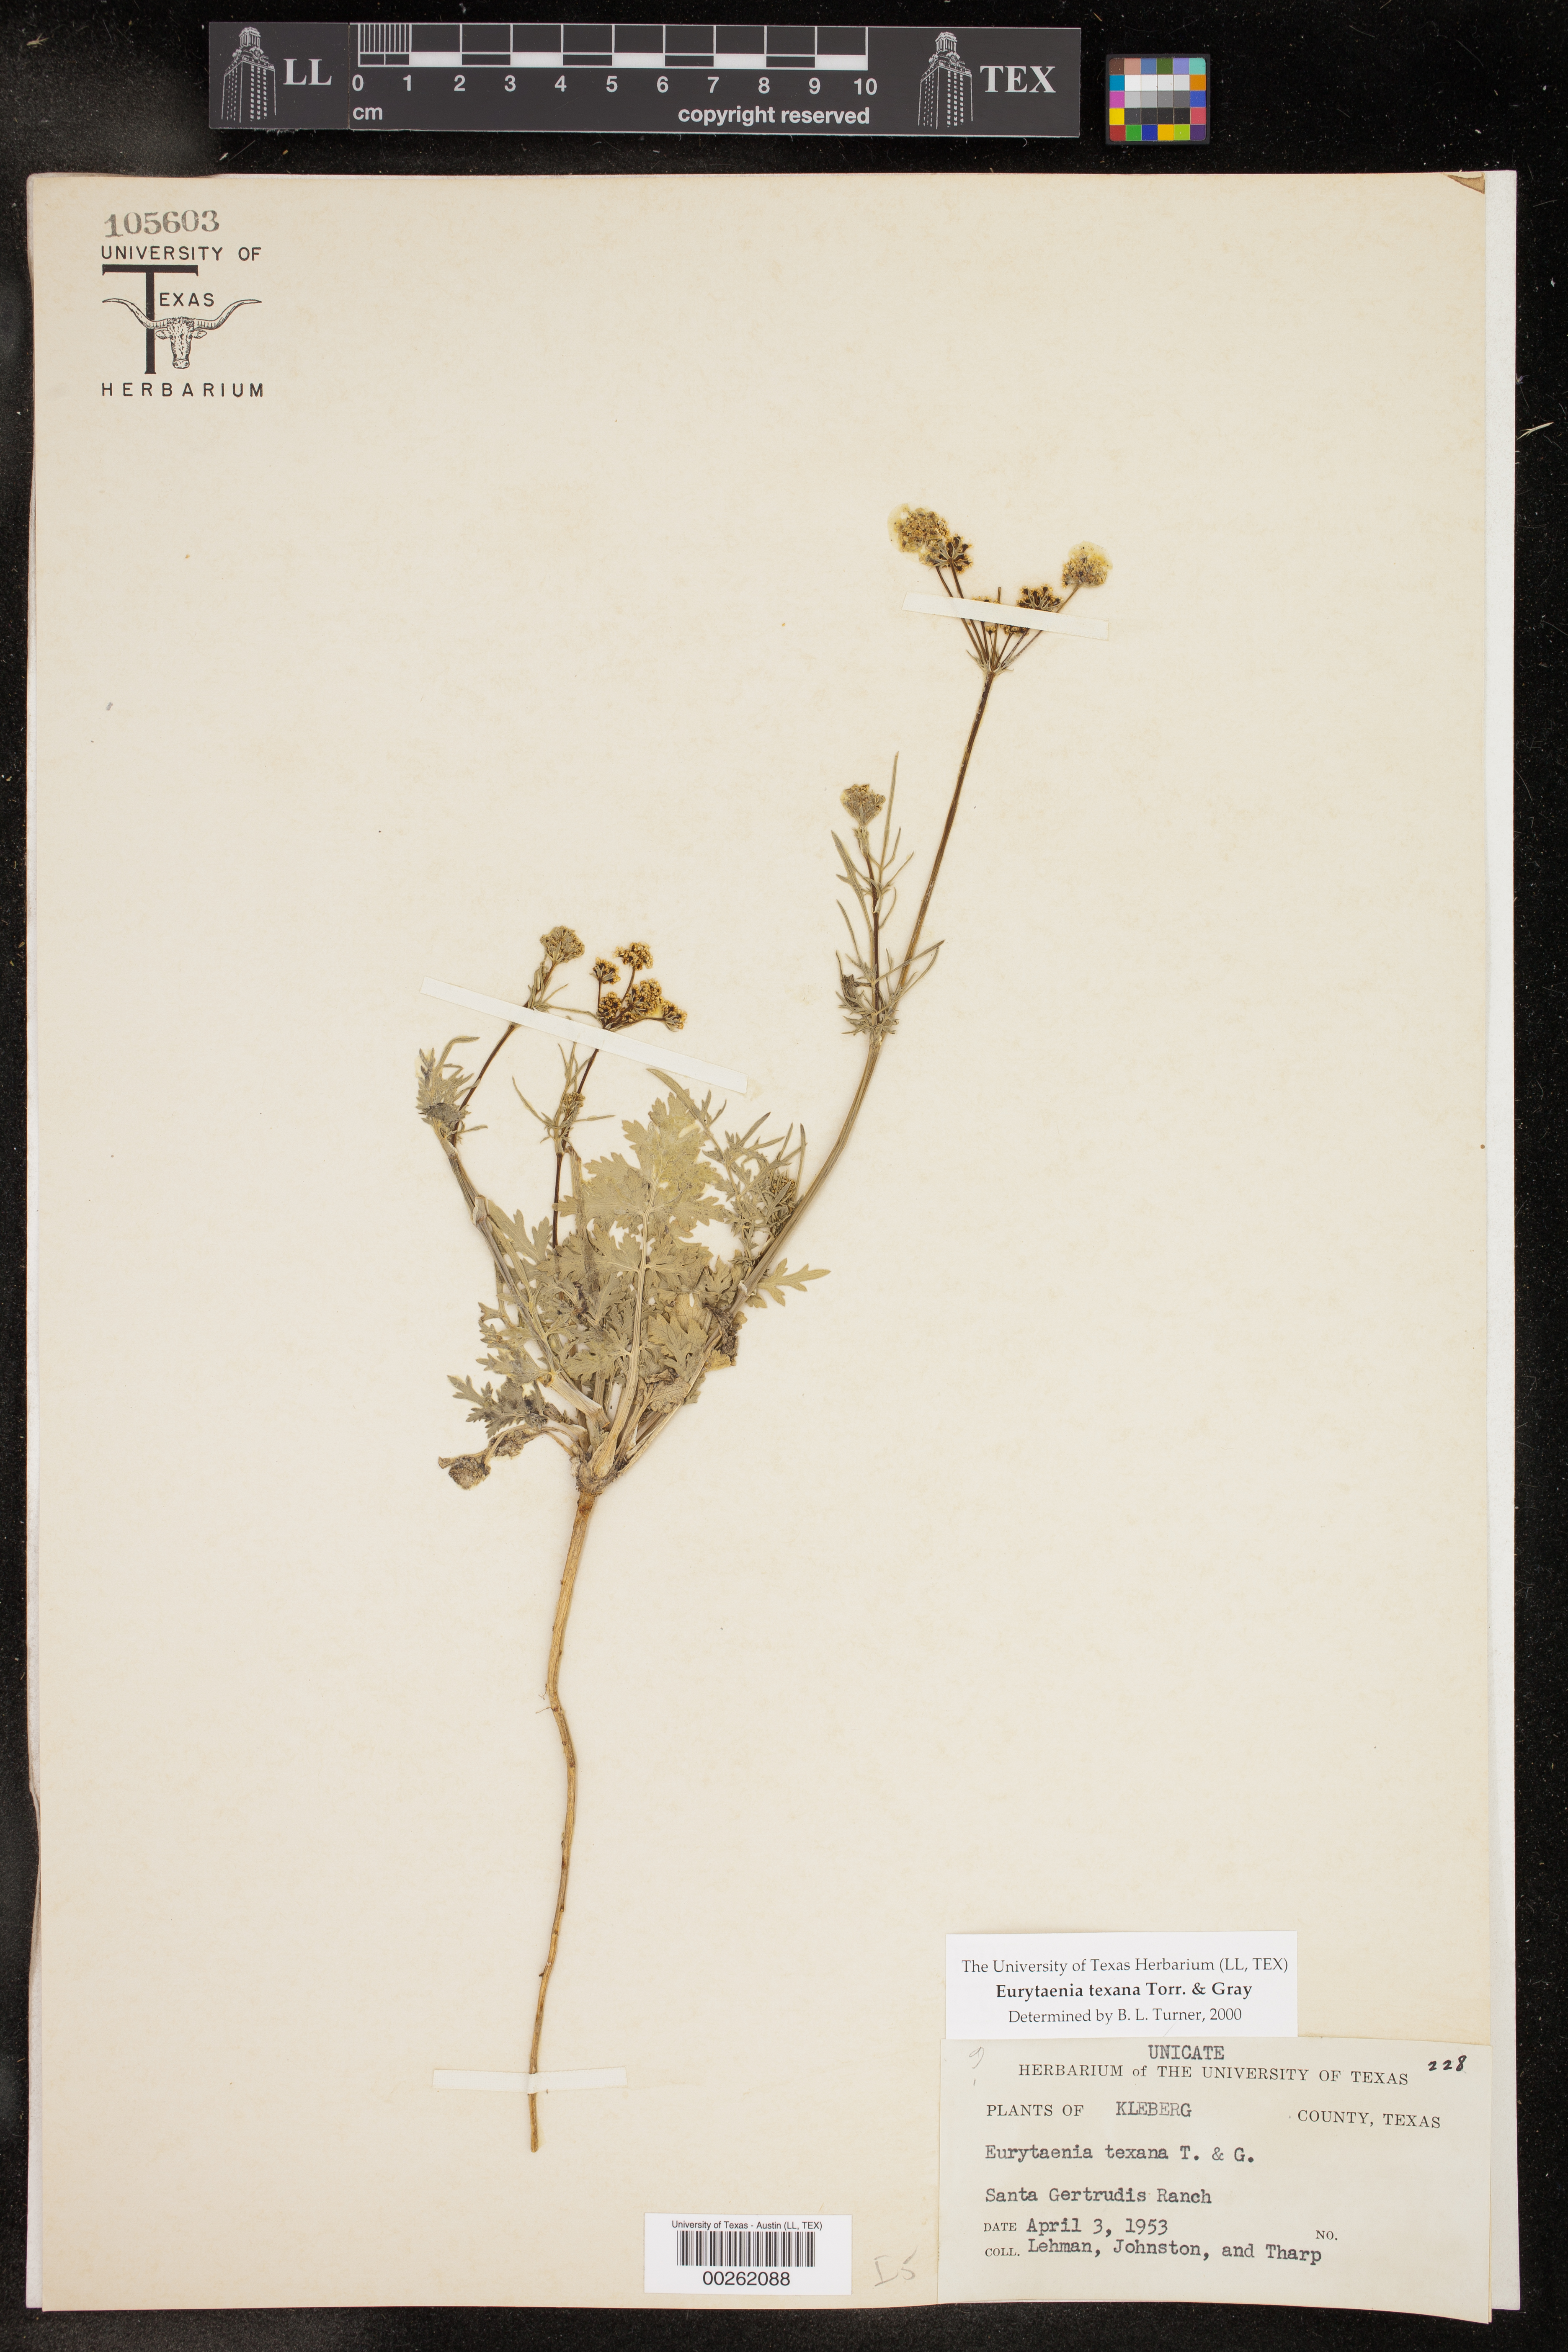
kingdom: Plantae
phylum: Tracheophyta
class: Magnoliopsida
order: Apiales
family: Apiaceae
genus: Eurytaenia
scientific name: Eurytaenia texana
